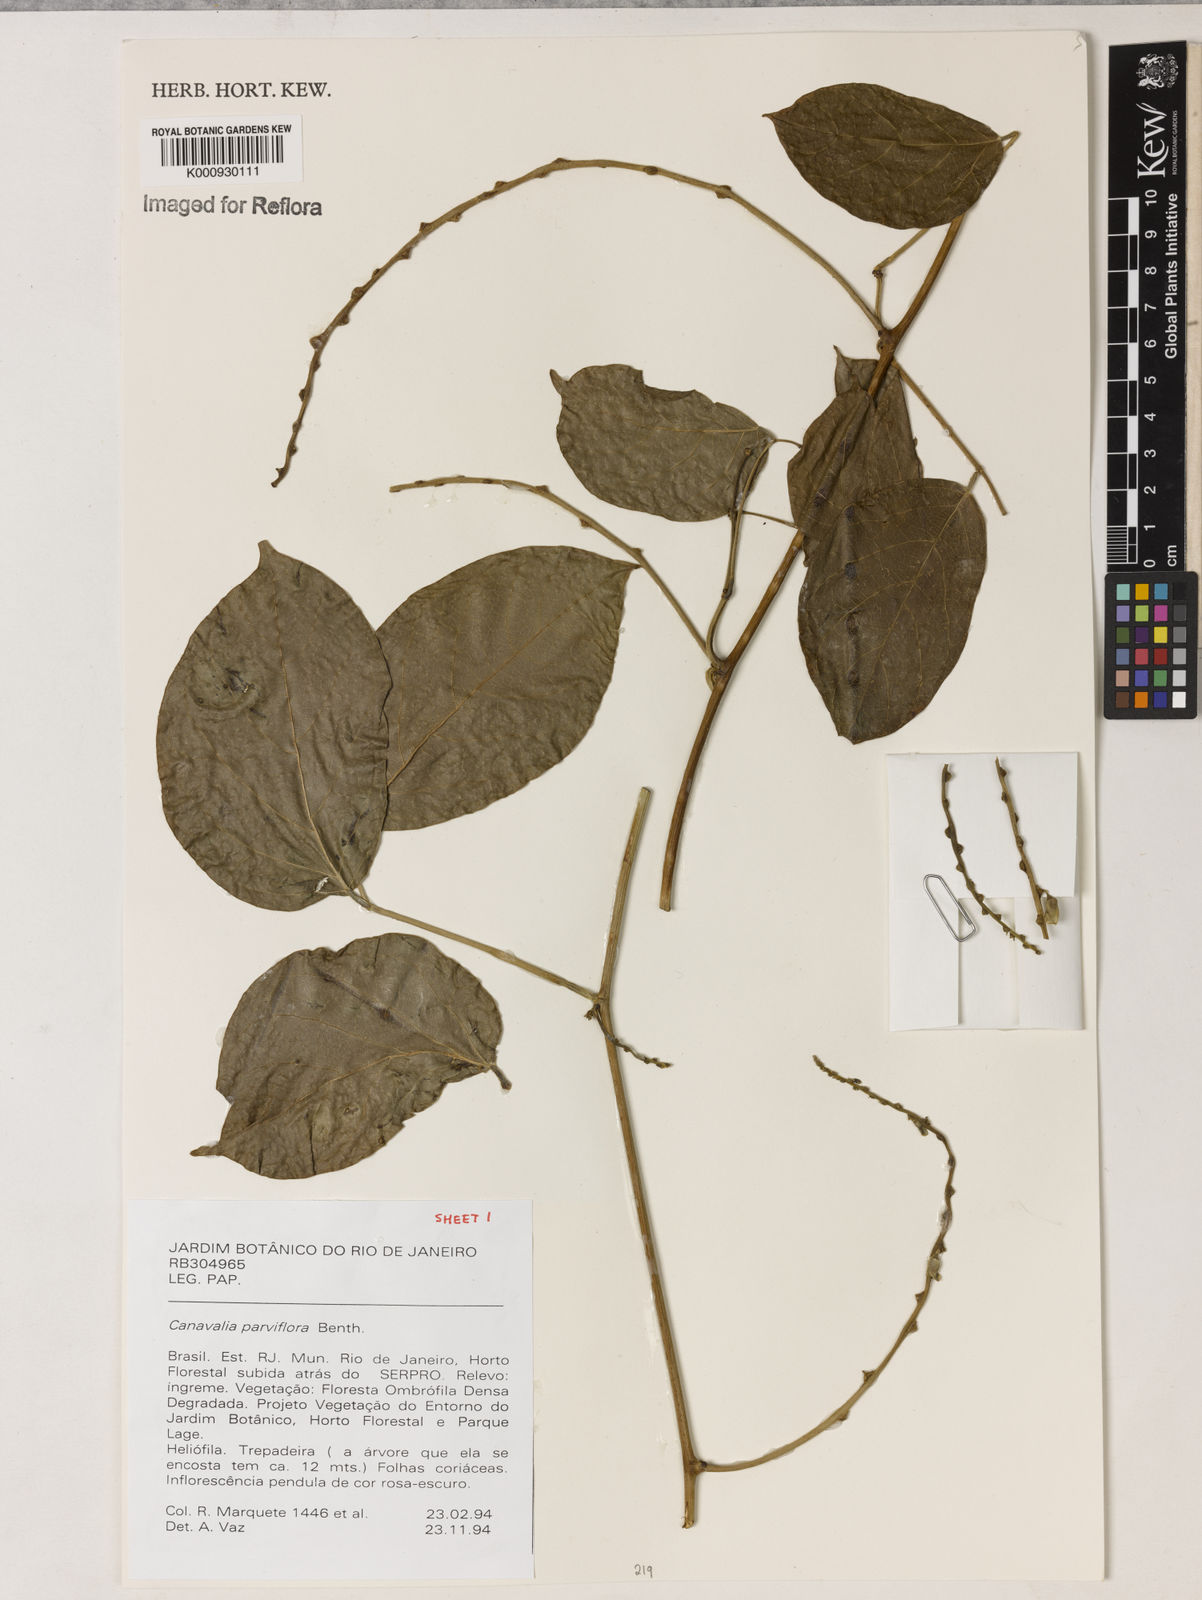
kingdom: Plantae
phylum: Tracheophyta
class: Magnoliopsida
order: Fabales
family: Fabaceae
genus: Canavalia
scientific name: Canavalia parviflora
